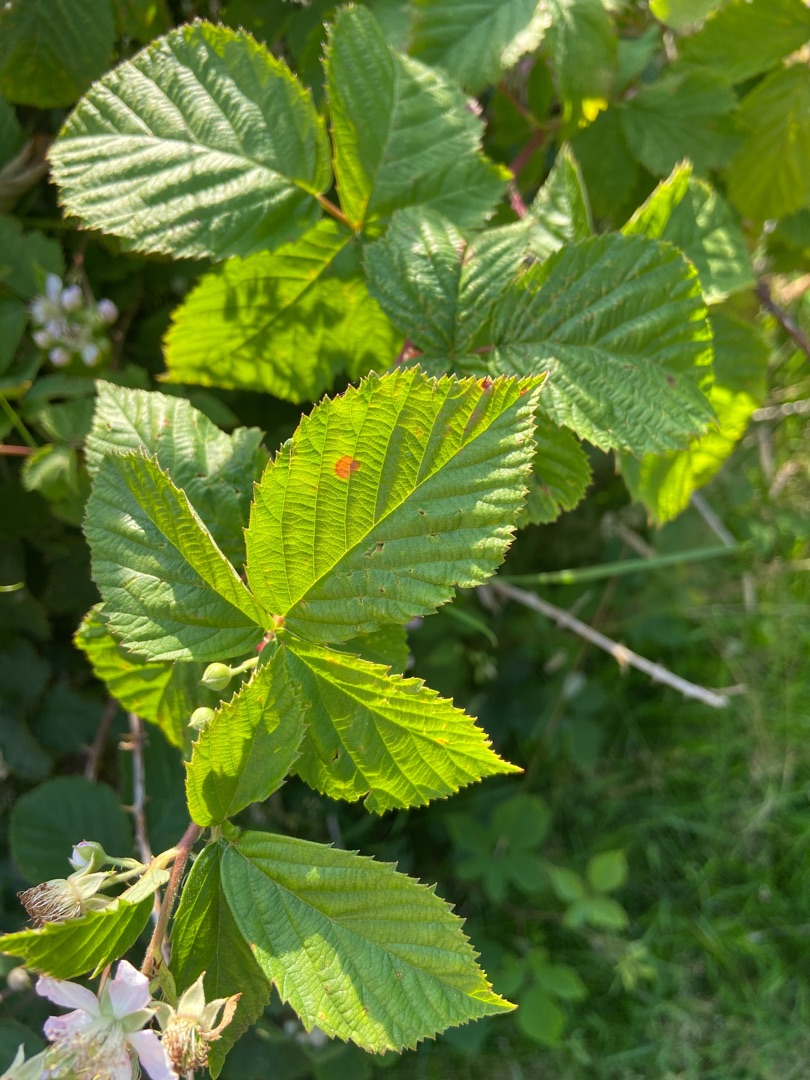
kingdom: Plantae
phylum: Tracheophyta
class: Magnoliopsida
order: Rosales
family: Rosaceae
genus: Rubus
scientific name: Rubus
